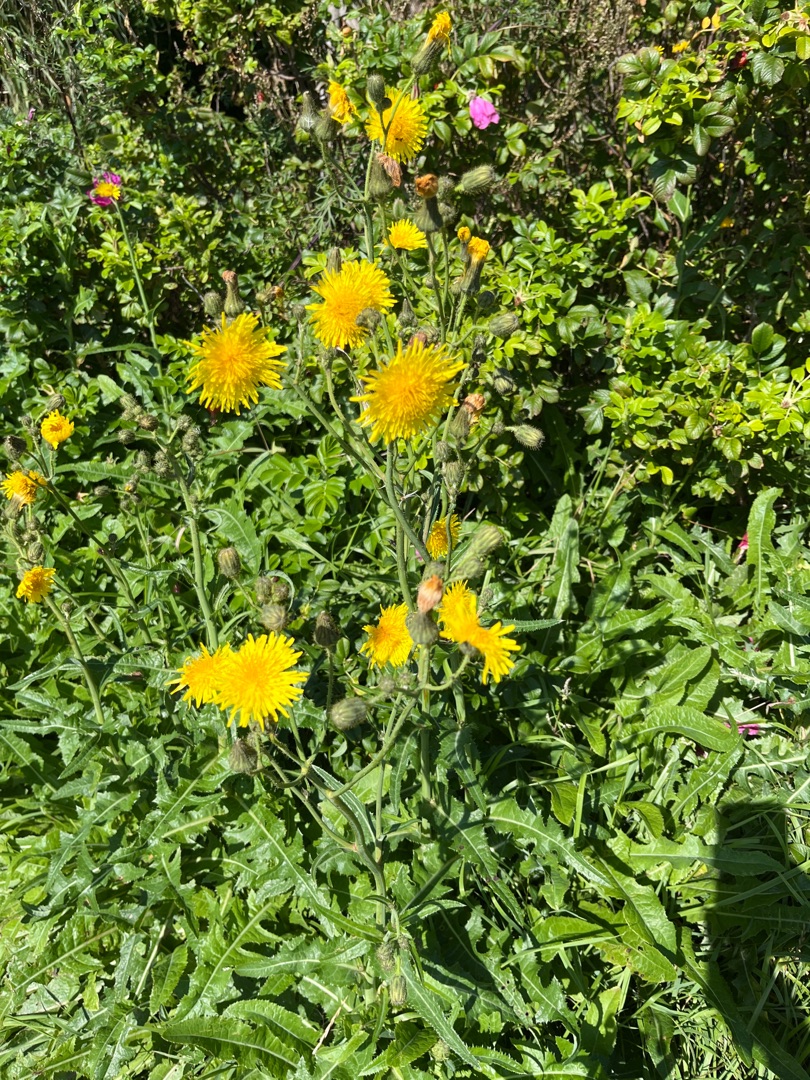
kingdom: Plantae
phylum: Tracheophyta
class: Magnoliopsida
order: Asterales
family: Asteraceae
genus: Sonchus
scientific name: Sonchus arvensis
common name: Ager-svinemælk
